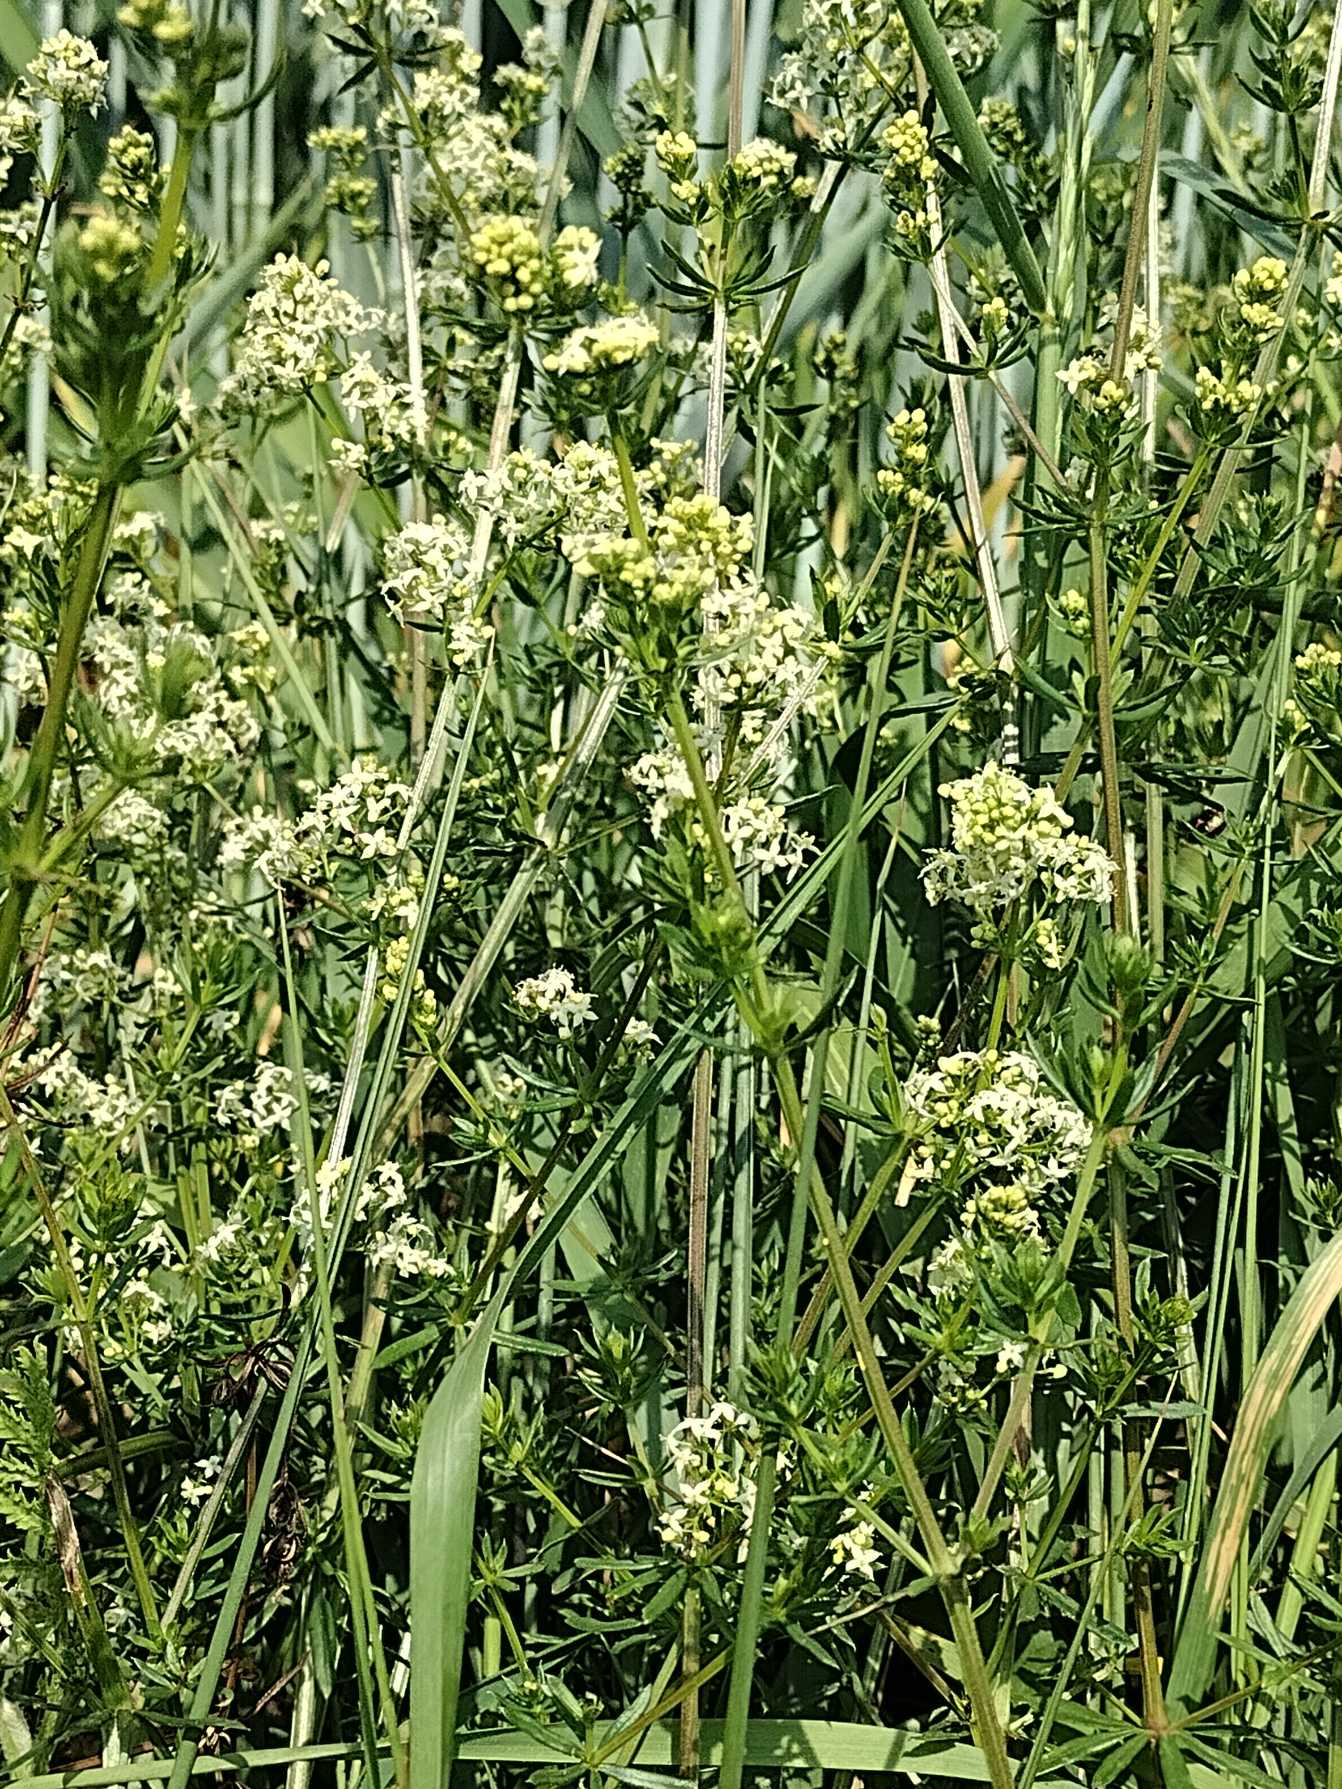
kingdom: Plantae
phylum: Tracheophyta
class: Magnoliopsida
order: Gentianales
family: Rubiaceae
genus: Galium
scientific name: Galium mollugo
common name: Hvid snerre
